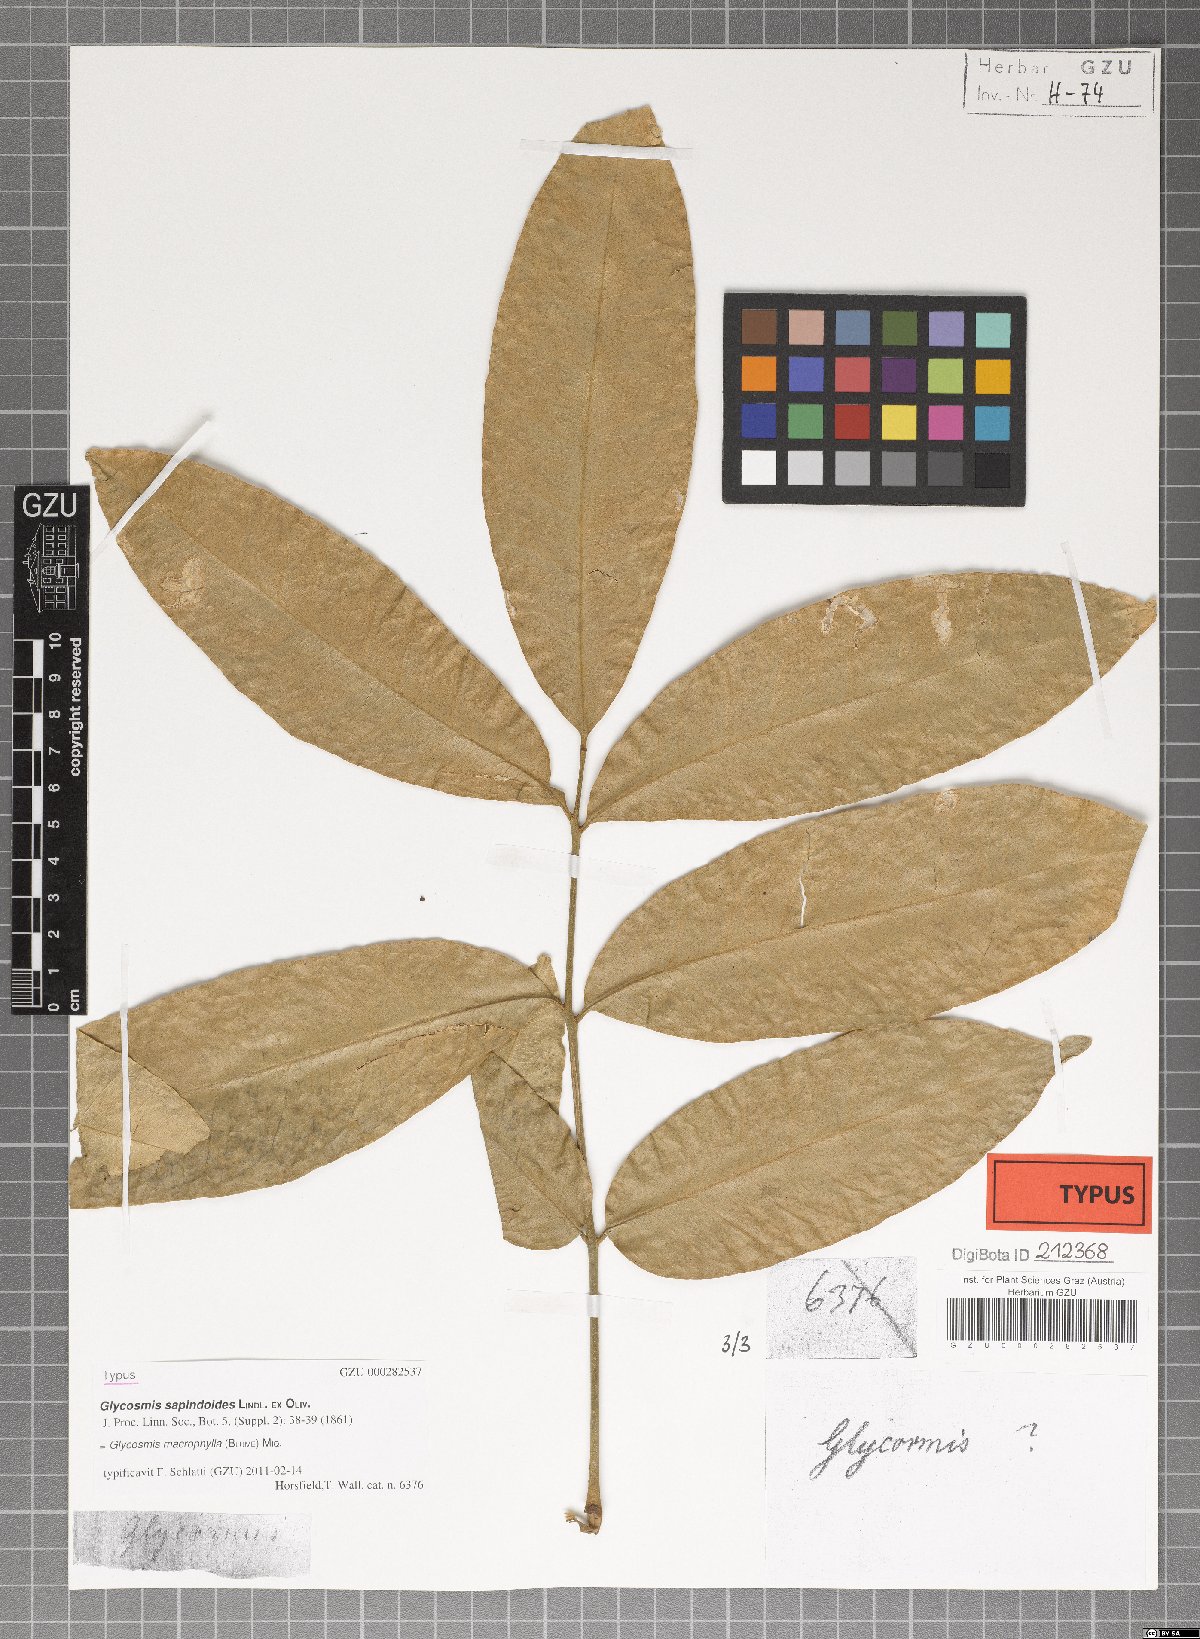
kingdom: Plantae
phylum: Tracheophyta
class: Magnoliopsida
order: Sapindales
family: Rutaceae
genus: Glycosmis
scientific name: Glycosmis macrophylla
